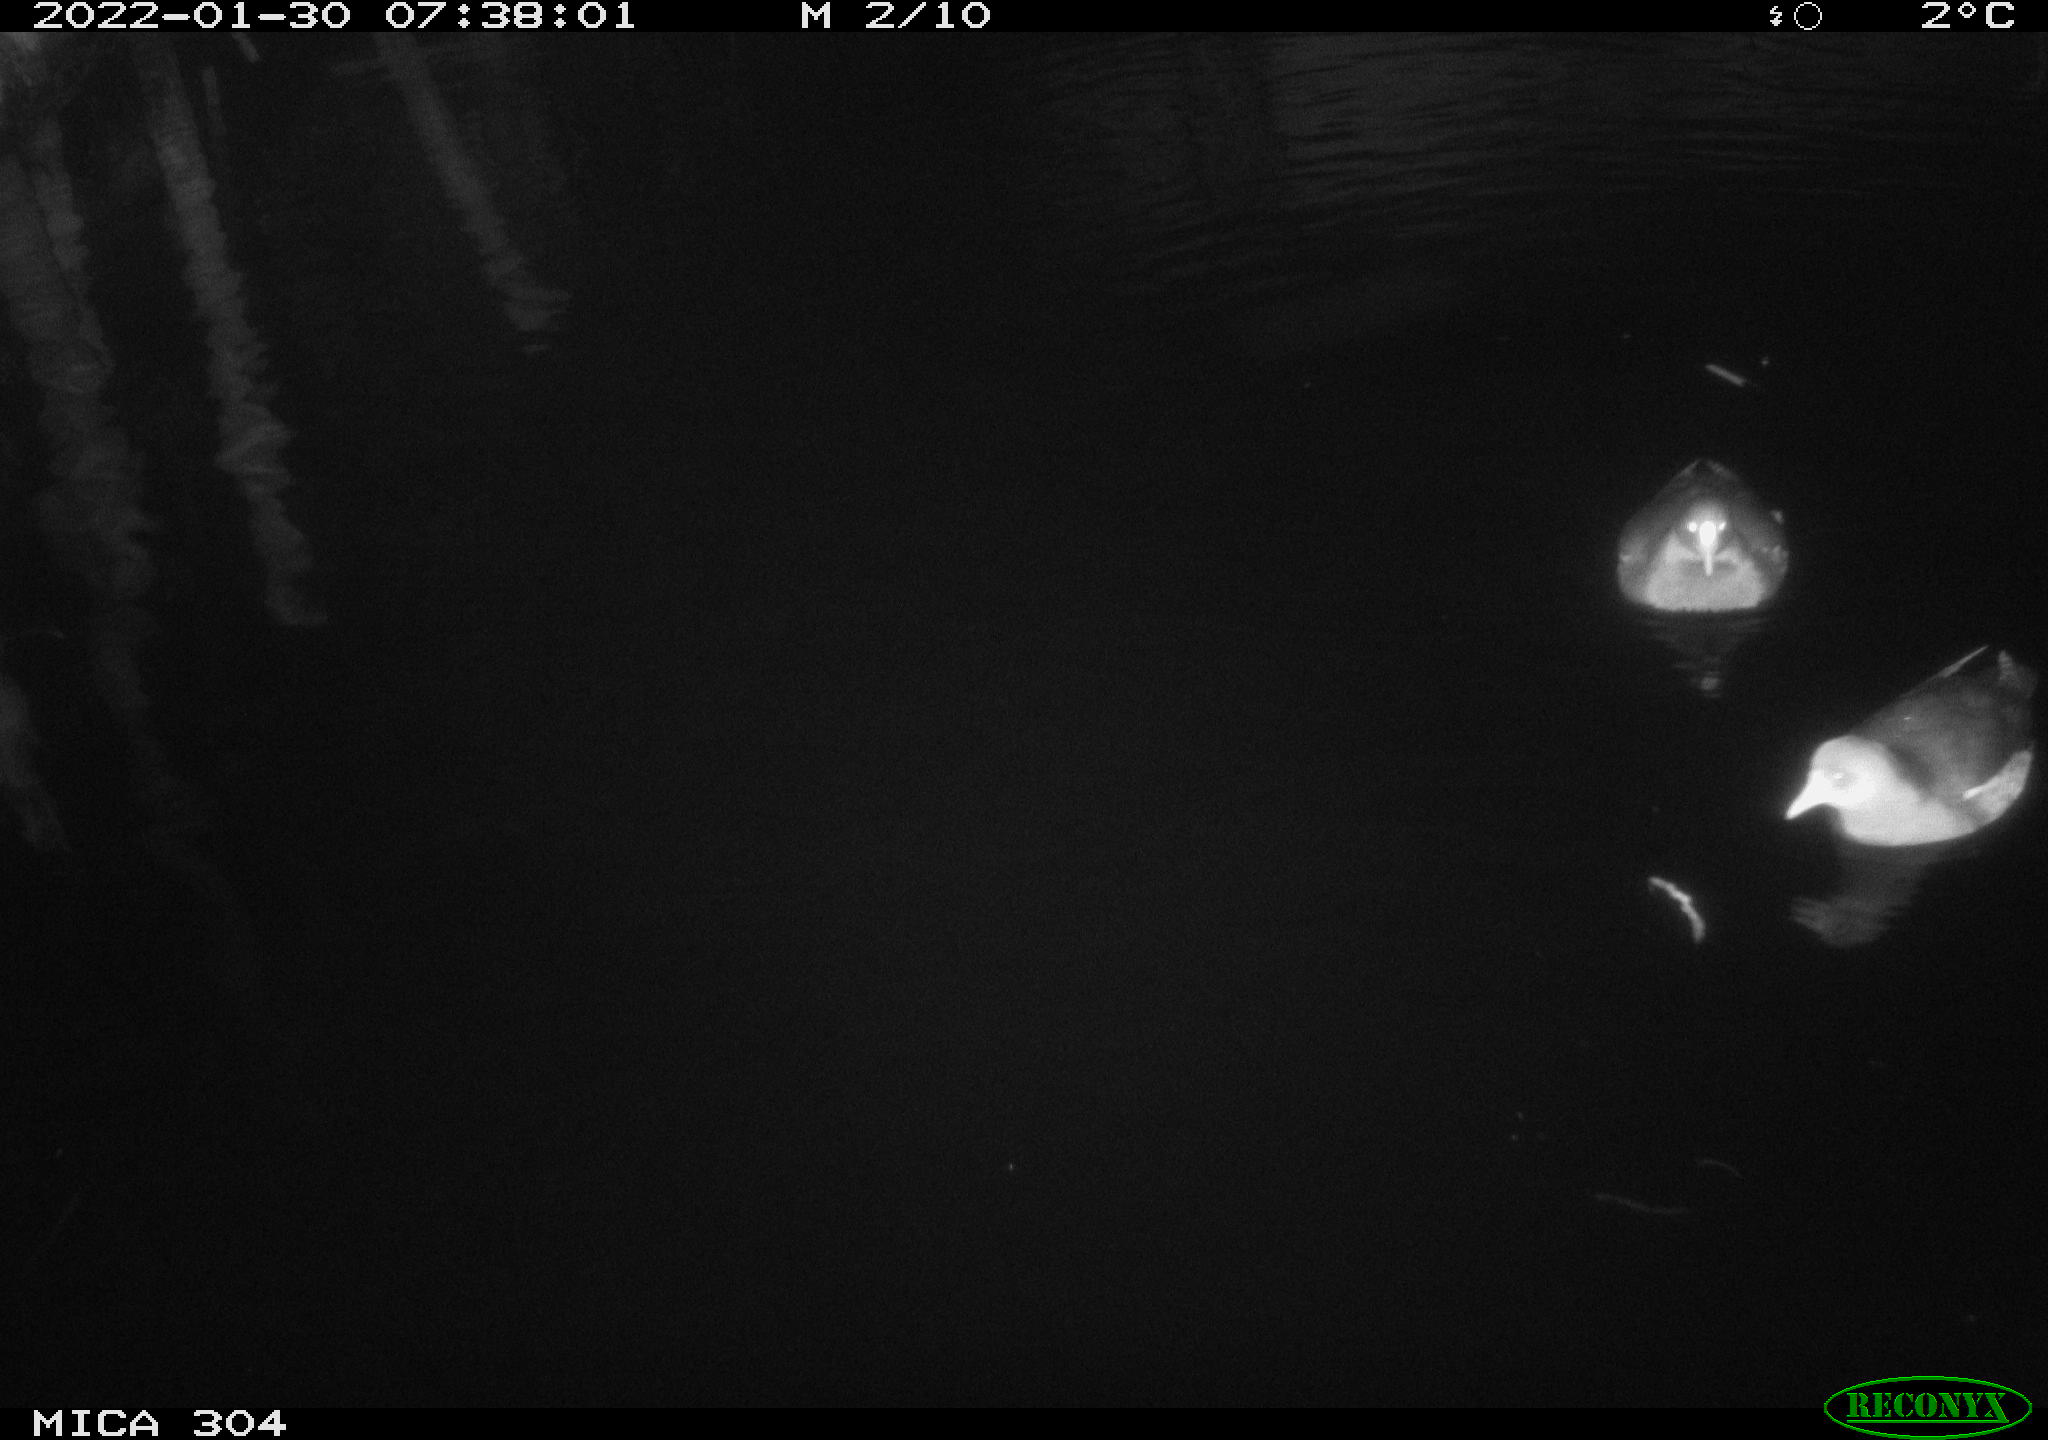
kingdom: Animalia
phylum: Chordata
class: Aves
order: Gruiformes
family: Rallidae
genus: Gallinula
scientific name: Gallinula chloropus
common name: Common moorhen
